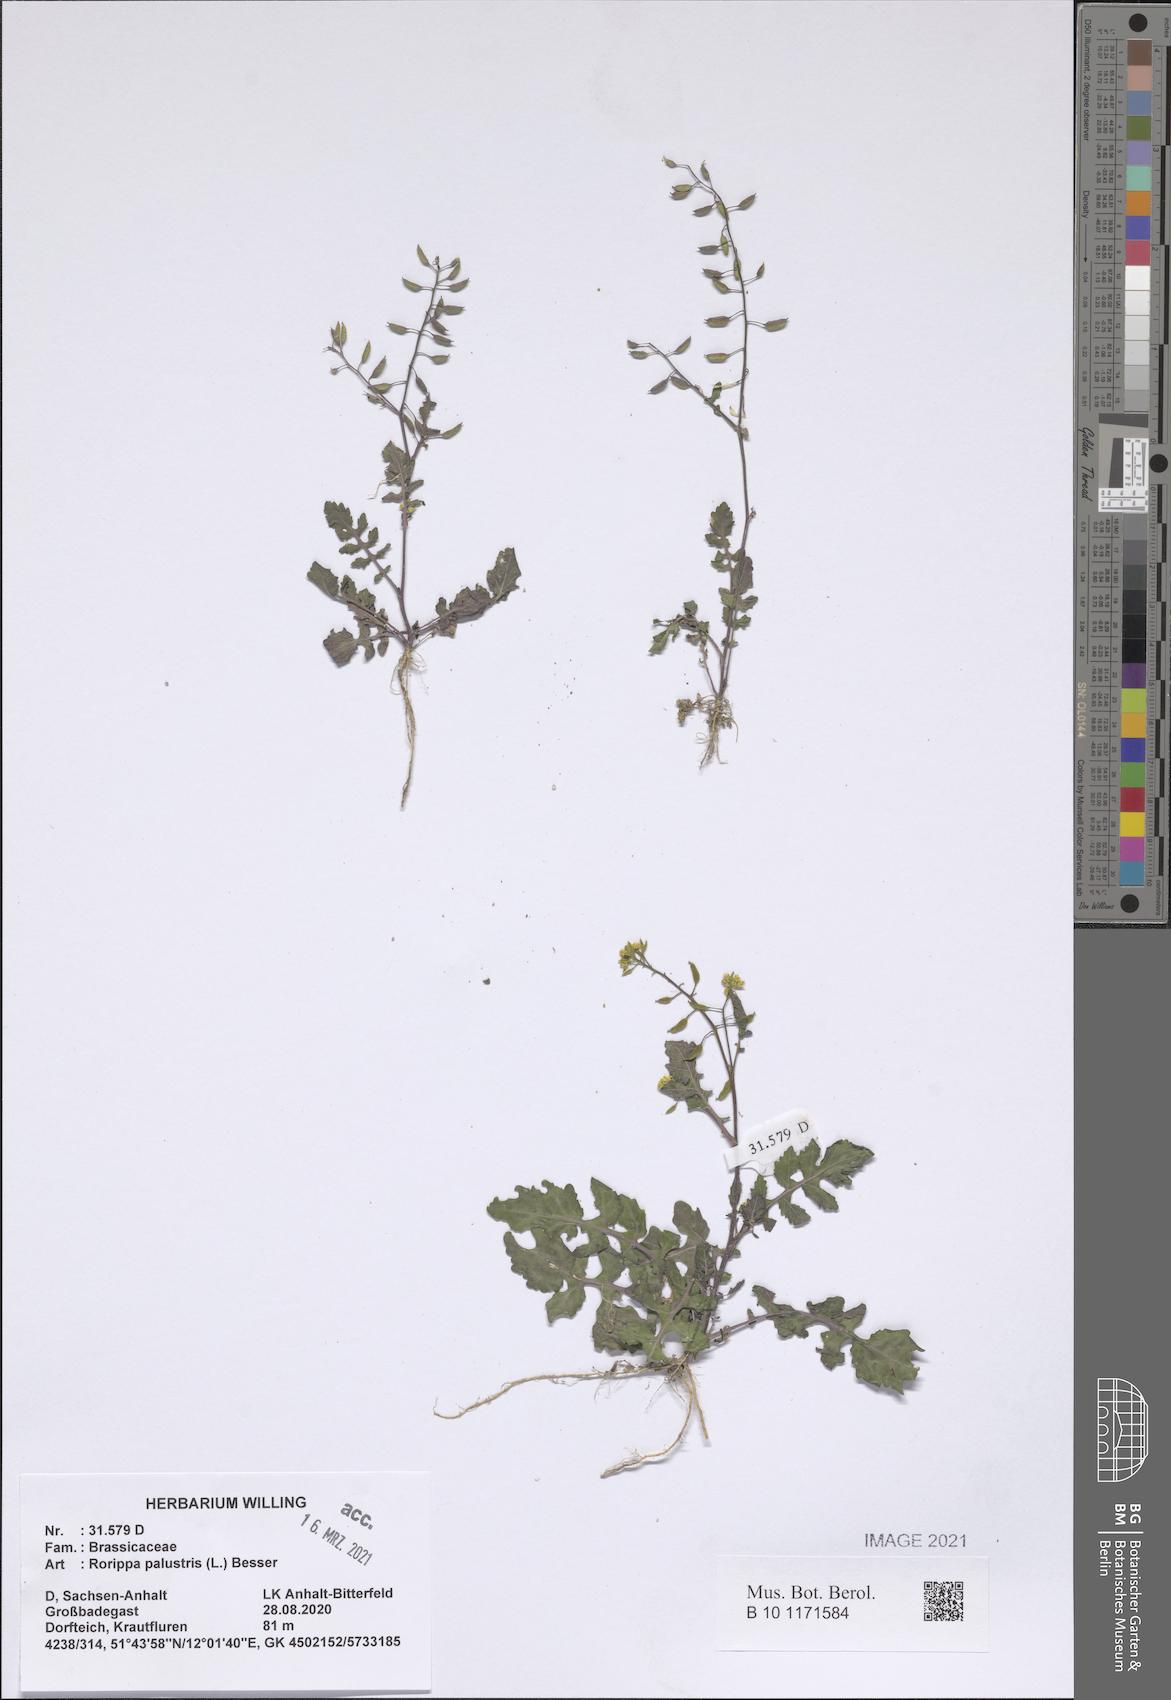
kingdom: Plantae
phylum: Tracheophyta
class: Magnoliopsida
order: Brassicales
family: Brassicaceae
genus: Rorippa
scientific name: Rorippa palustris
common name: Marsh yellow-cress
